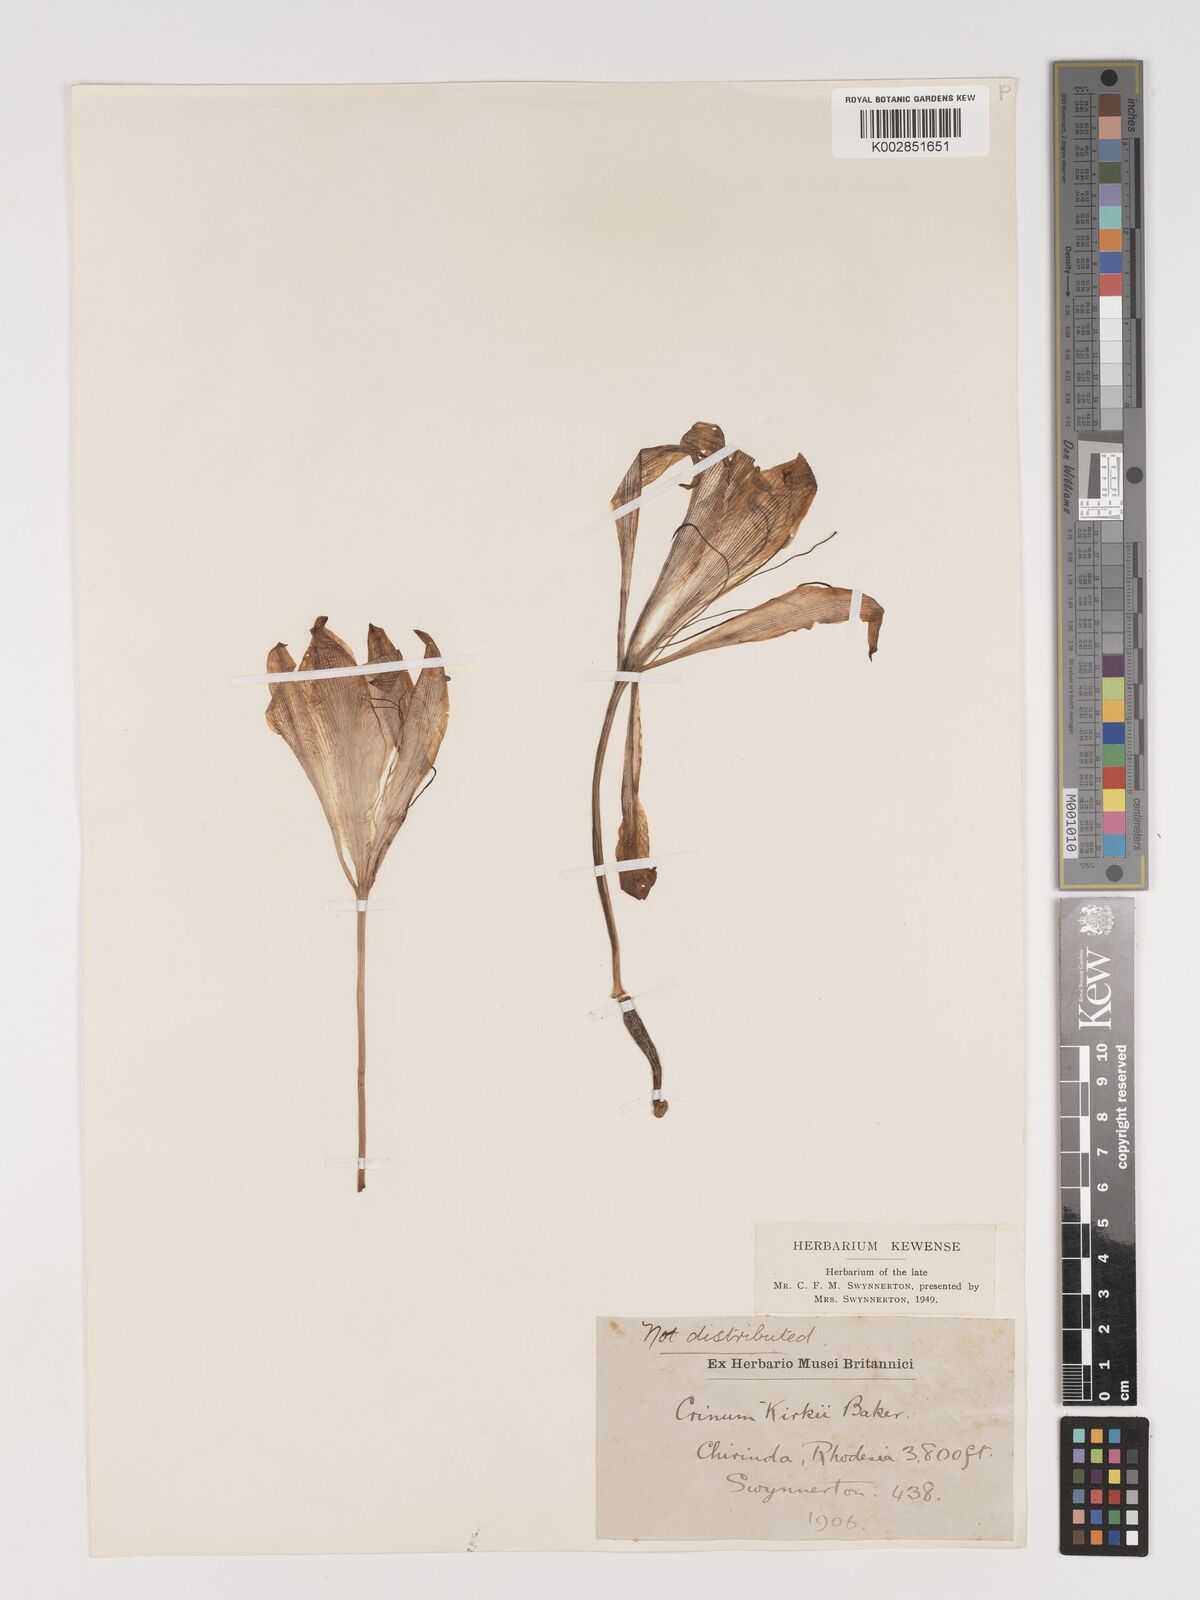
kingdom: Plantae
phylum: Tracheophyta
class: Liliopsida
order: Asparagales
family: Amaryllidaceae
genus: Crinum
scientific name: Crinum graminicola
